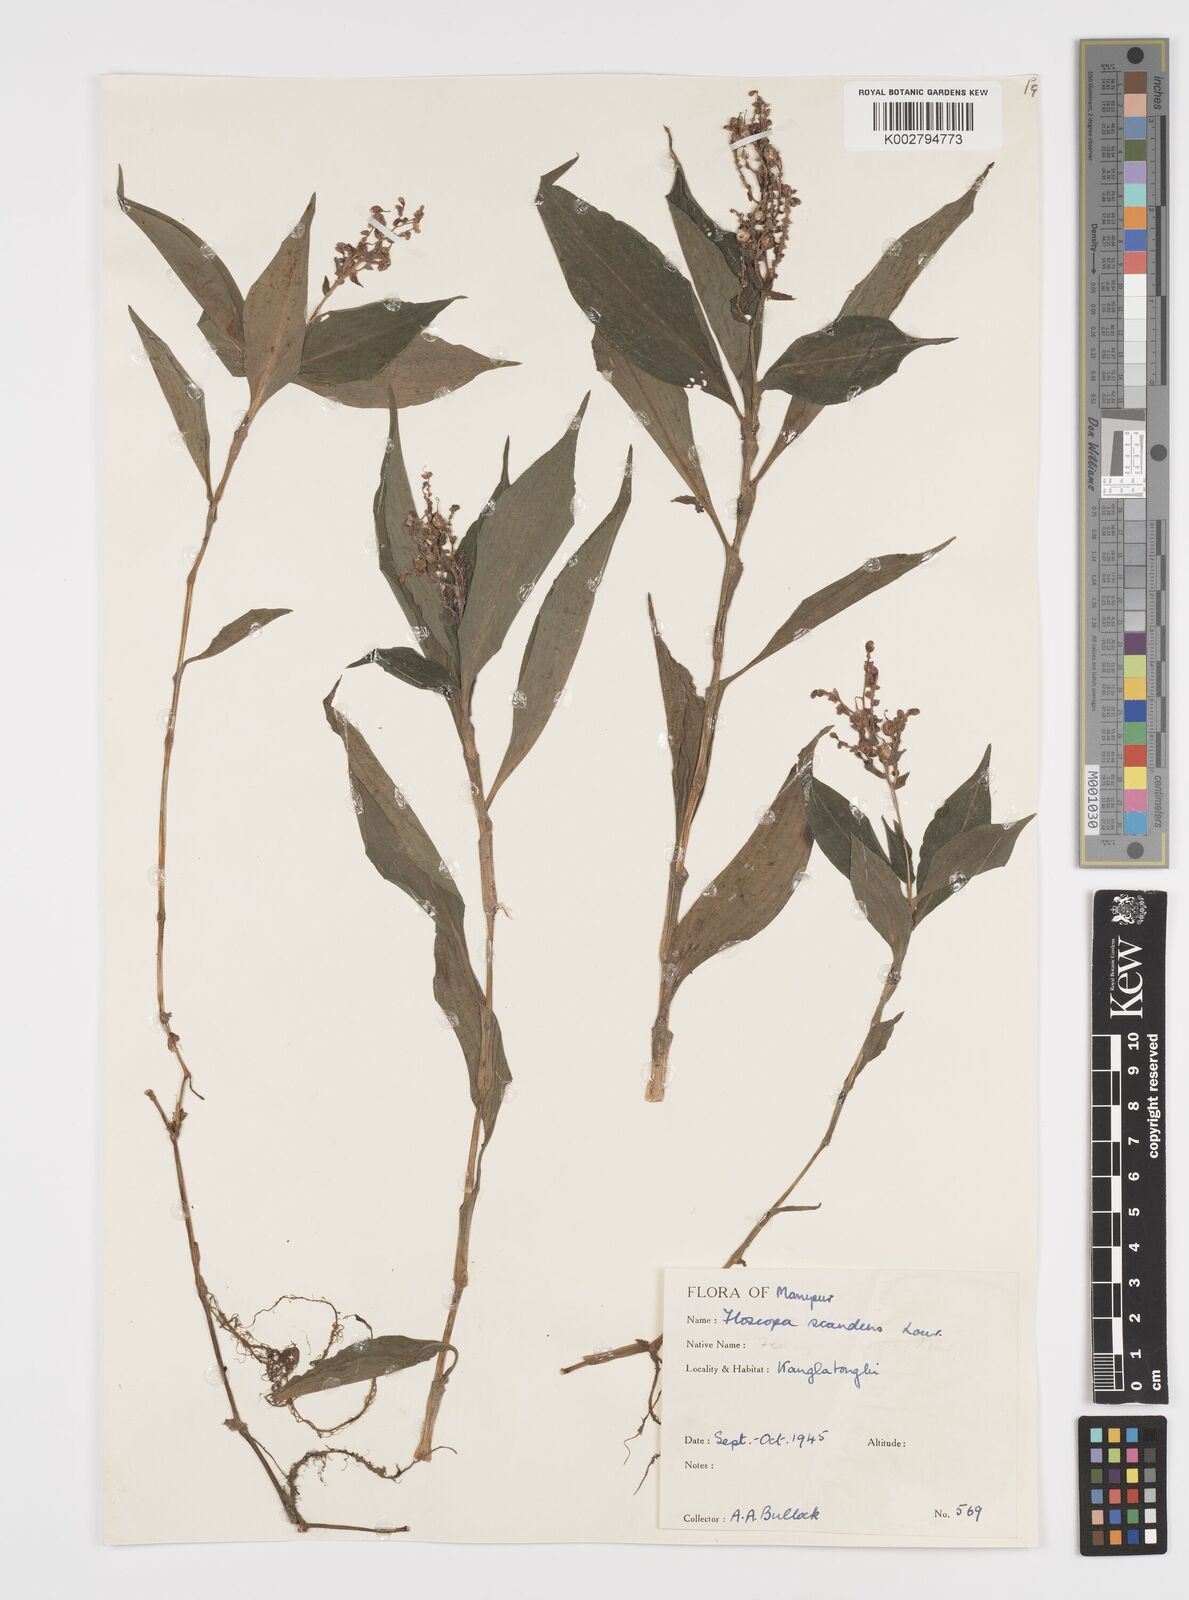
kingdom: Plantae
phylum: Tracheophyta
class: Liliopsida
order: Commelinales
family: Commelinaceae
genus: Floscopa
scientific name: Floscopa scandens
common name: Climbing flower cup
